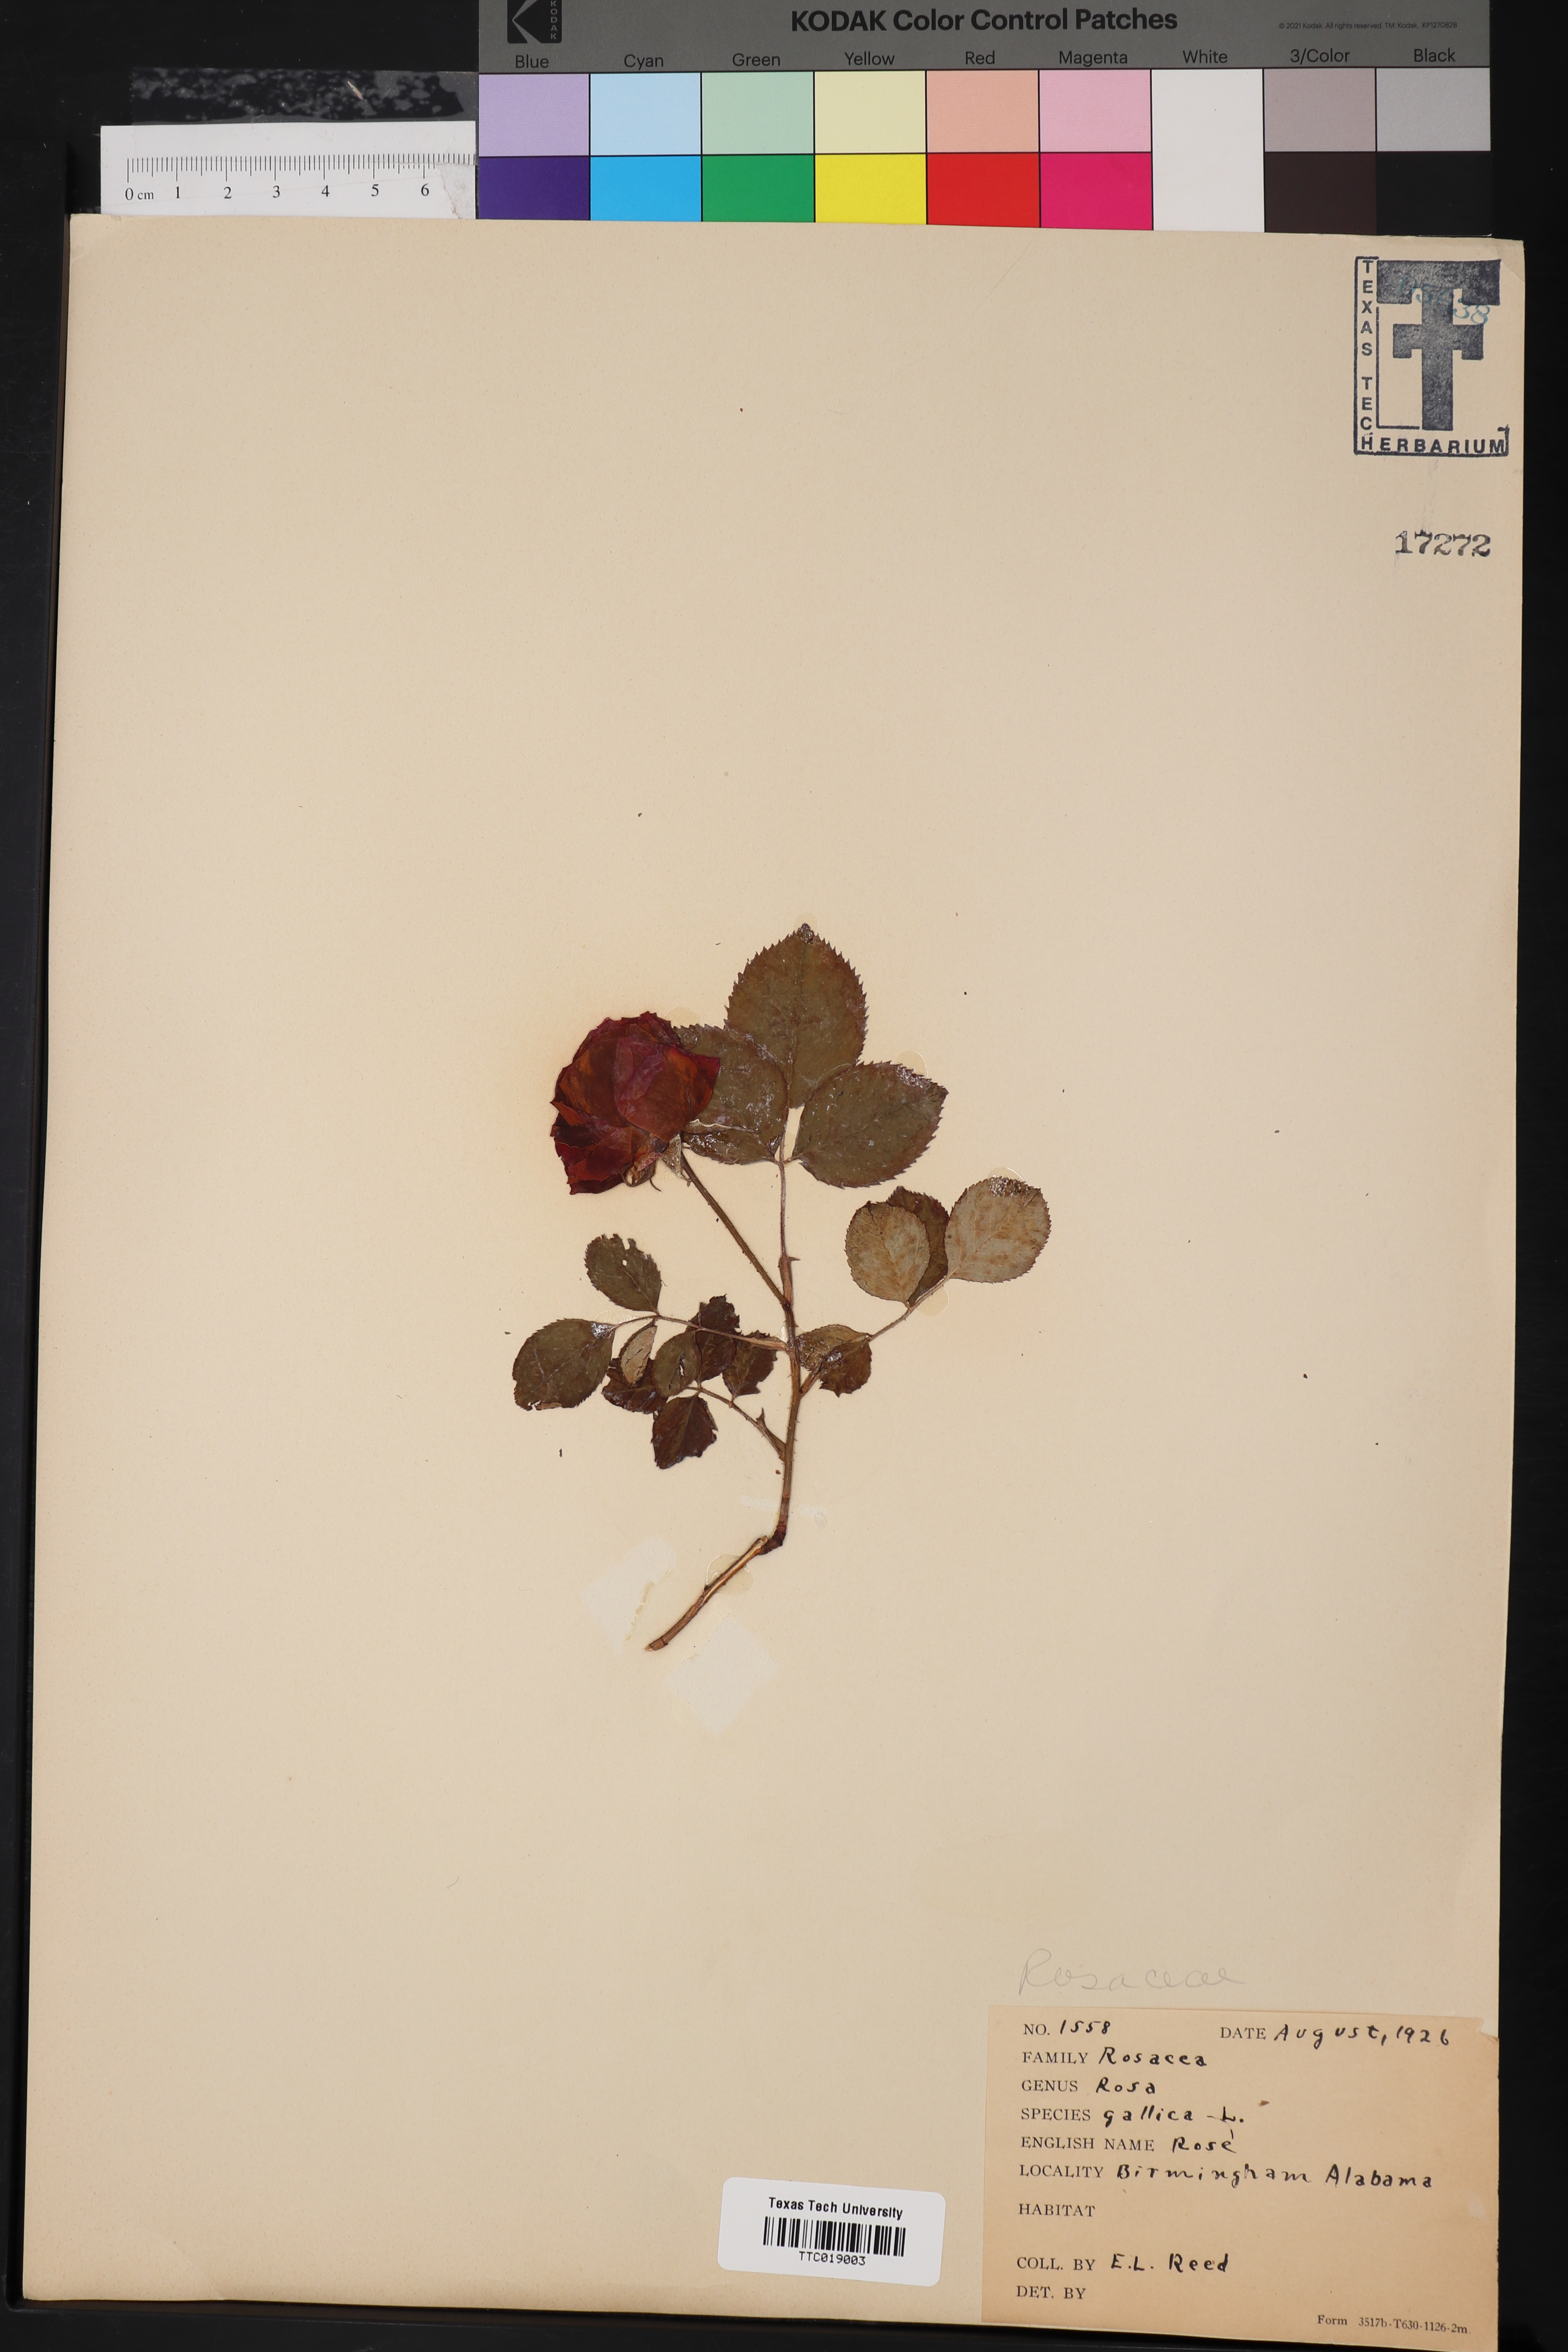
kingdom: Plantae
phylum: Tracheophyta
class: Magnoliopsida
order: Rosales
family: Rosaceae
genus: Rosa
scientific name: Rosa gallica
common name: French rose
